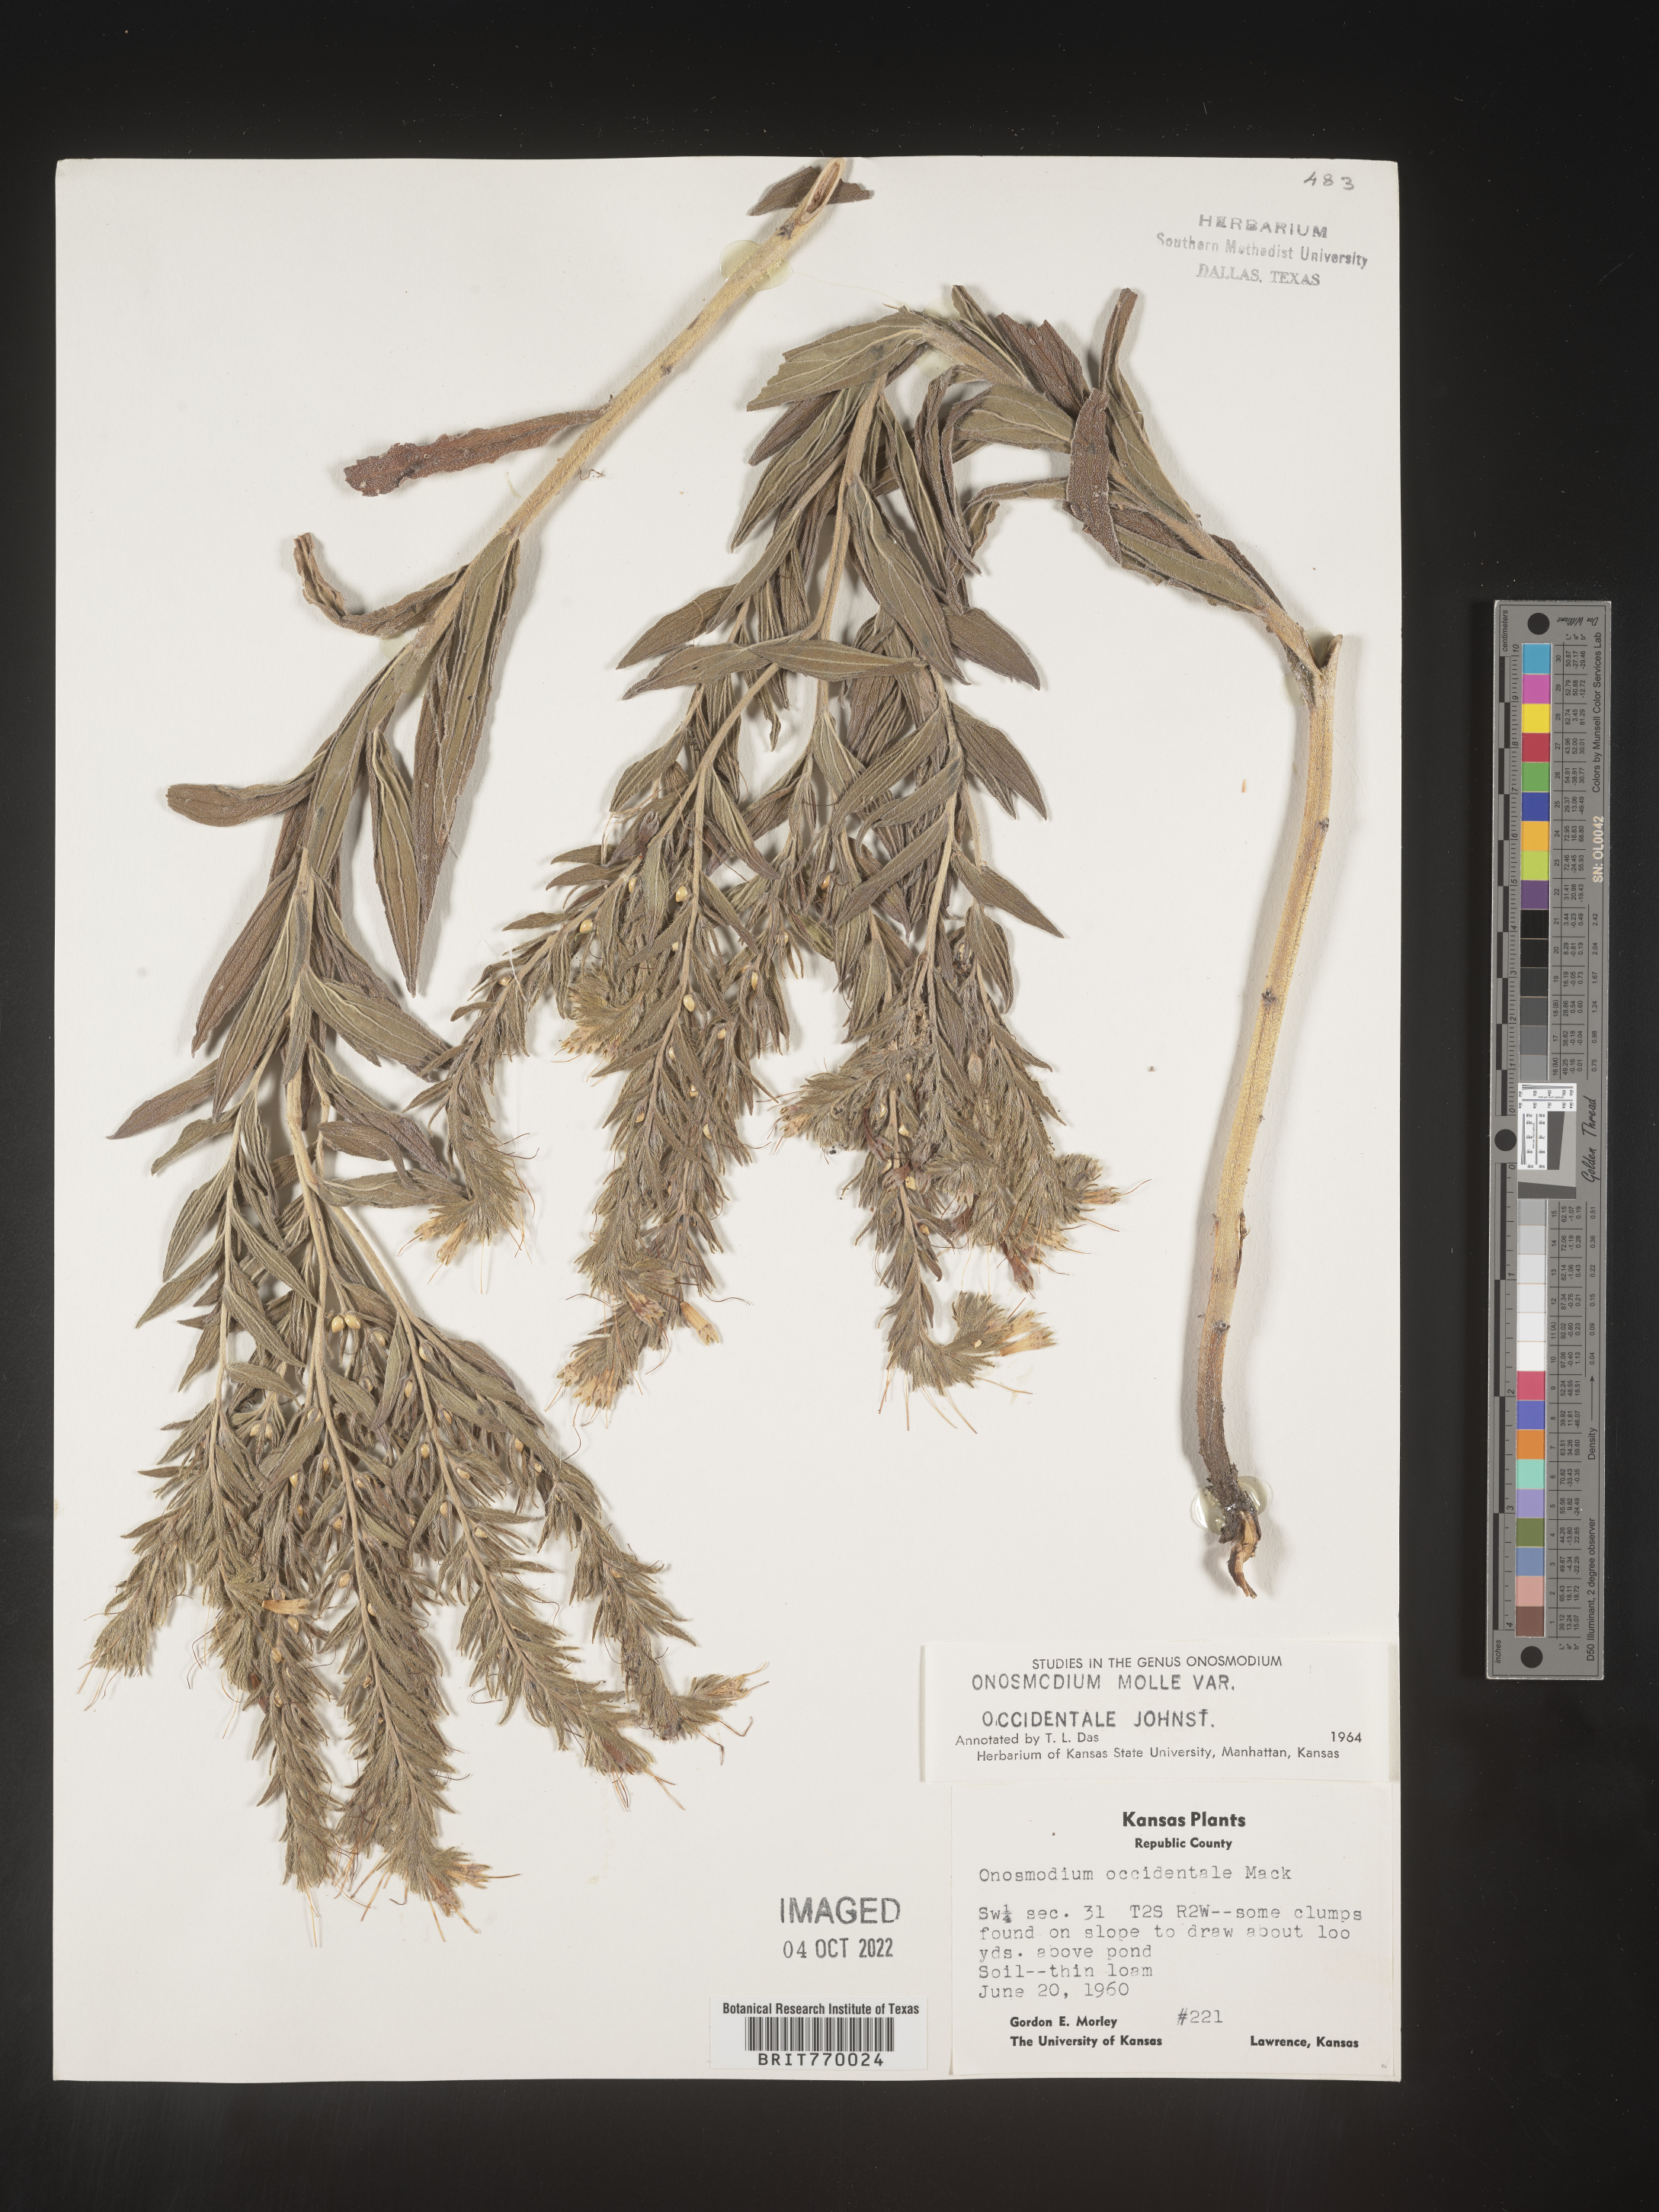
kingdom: Plantae
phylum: Tracheophyta
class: Magnoliopsida
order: Boraginales
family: Boraginaceae
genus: Lithospermum
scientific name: Lithospermum occidentale
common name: Western false gromwell
